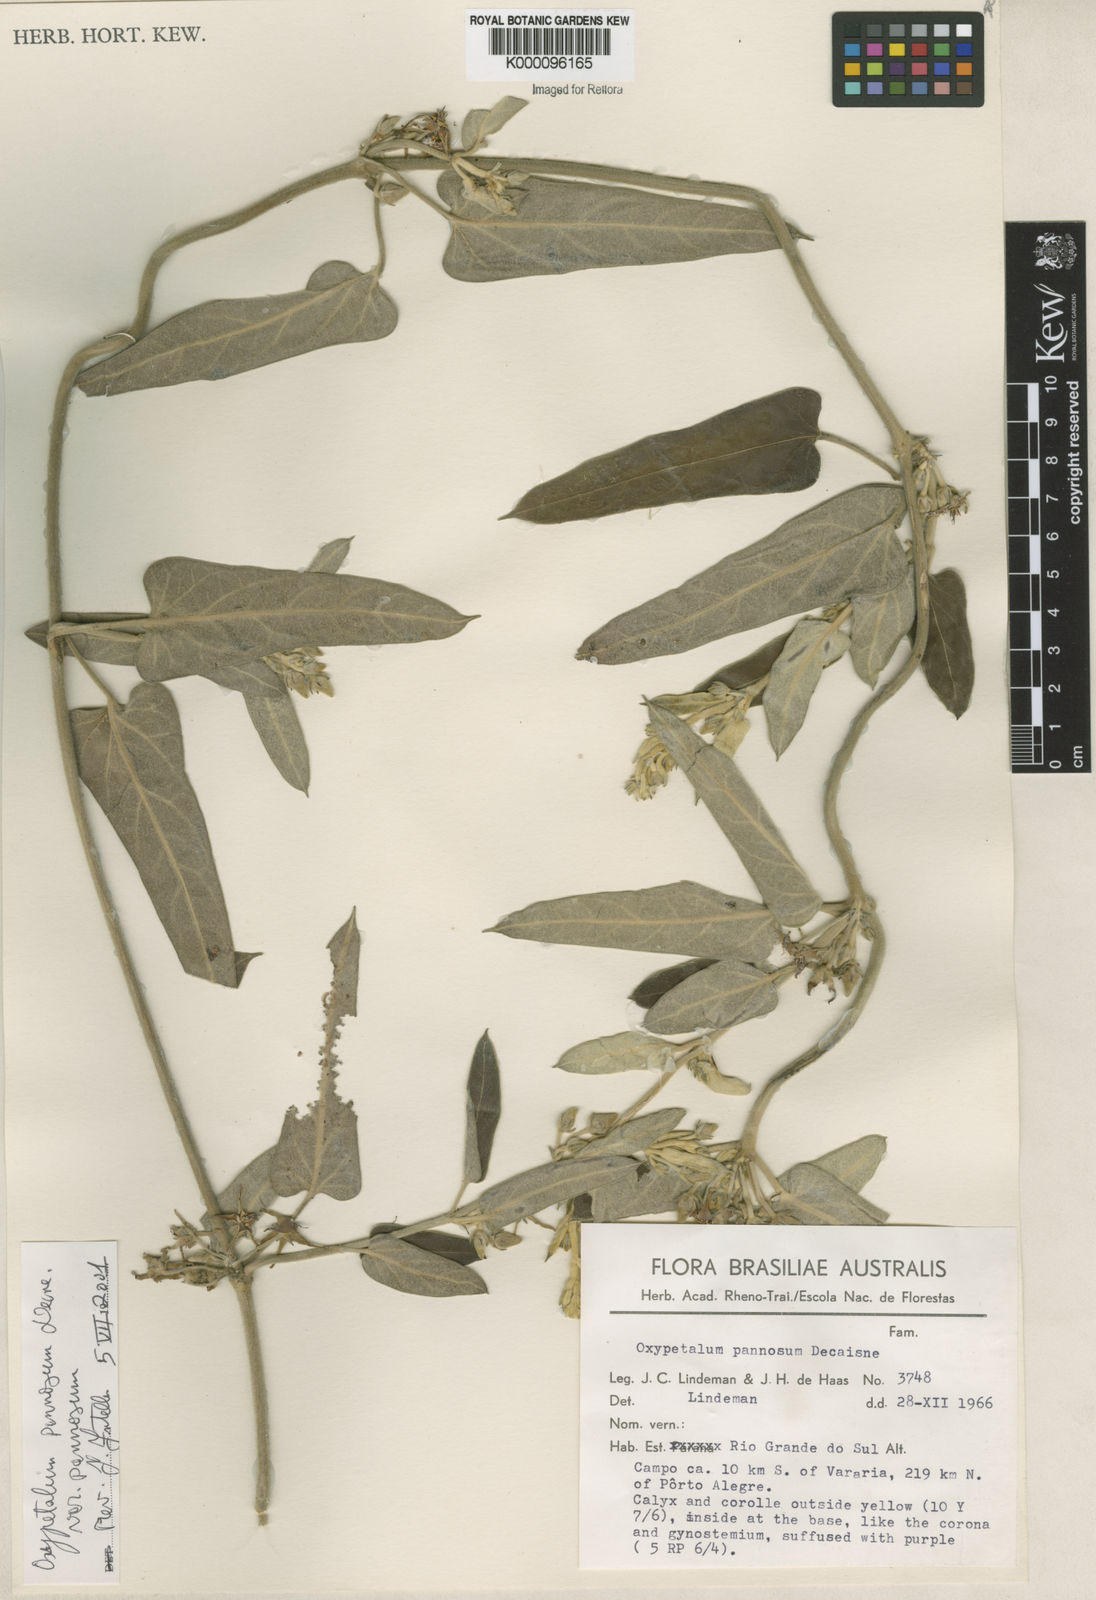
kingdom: Plantae
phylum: Tracheophyta
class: Magnoliopsida
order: Gentianales
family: Apocynaceae
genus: Oxypetalum
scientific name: Oxypetalum pannosum
